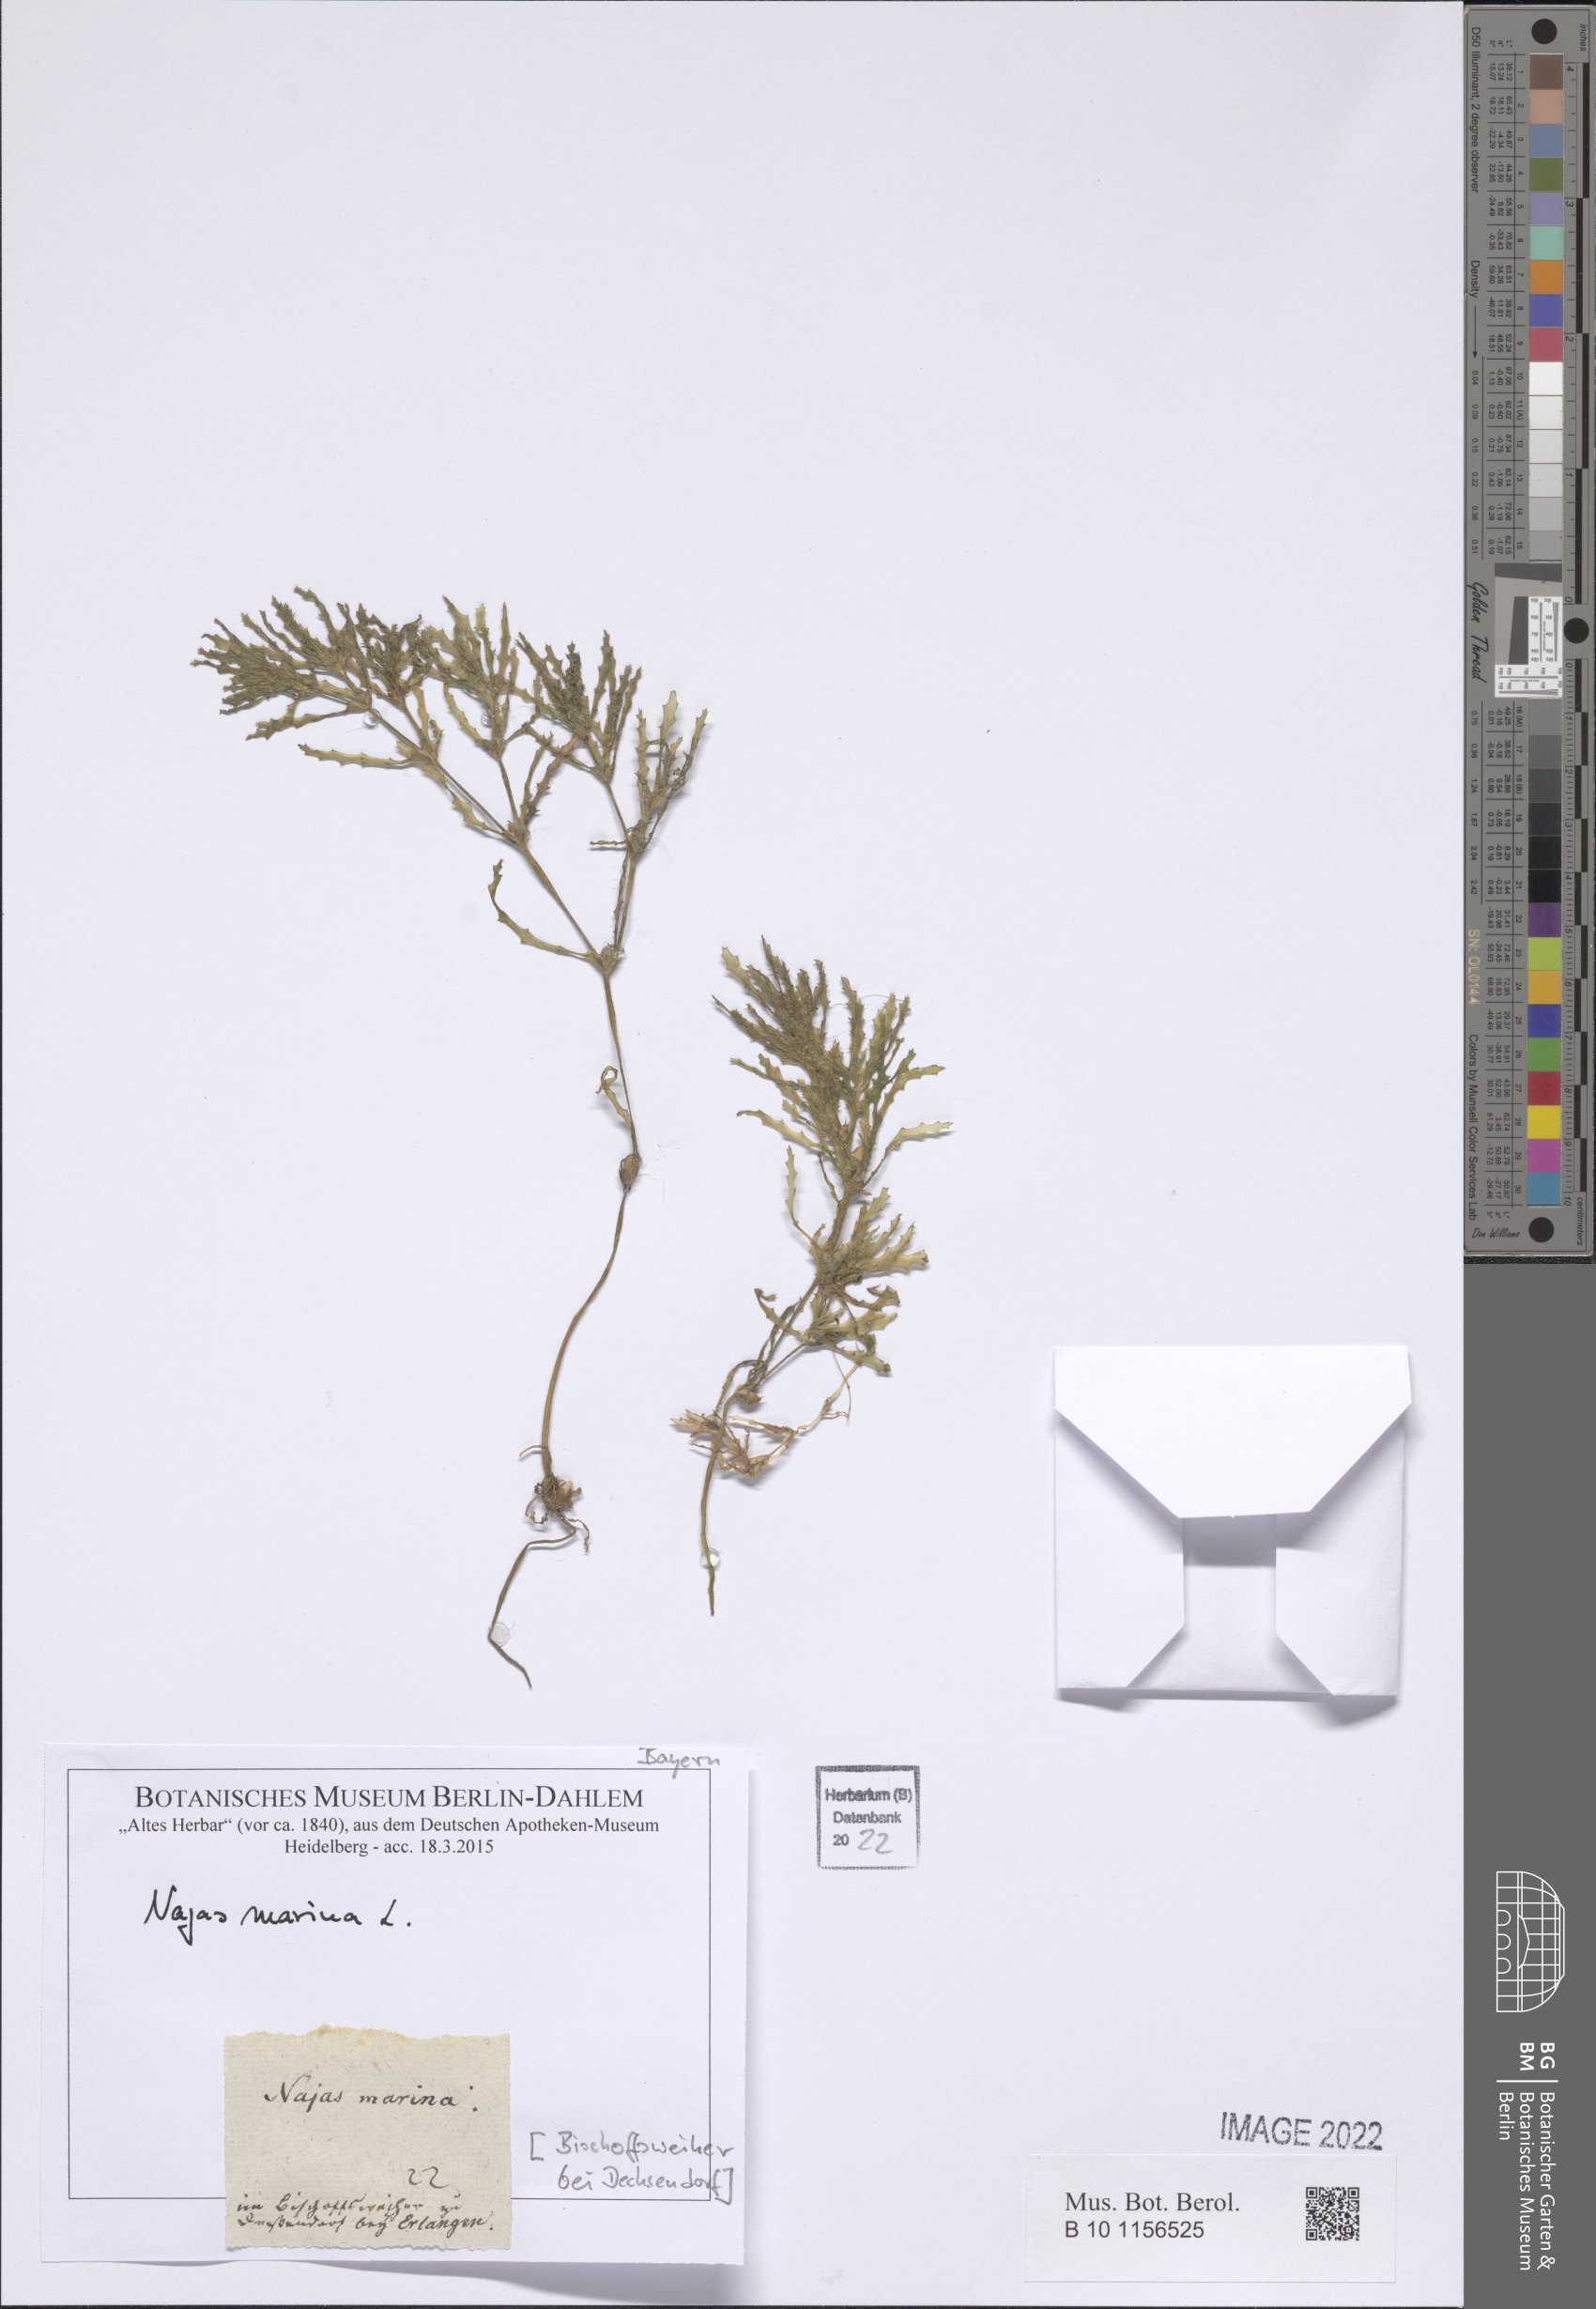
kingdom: Plantae
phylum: Tracheophyta
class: Liliopsida
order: Alismatales
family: Hydrocharitaceae
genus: Najas
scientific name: Najas marina
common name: Holly-leaved naiad
